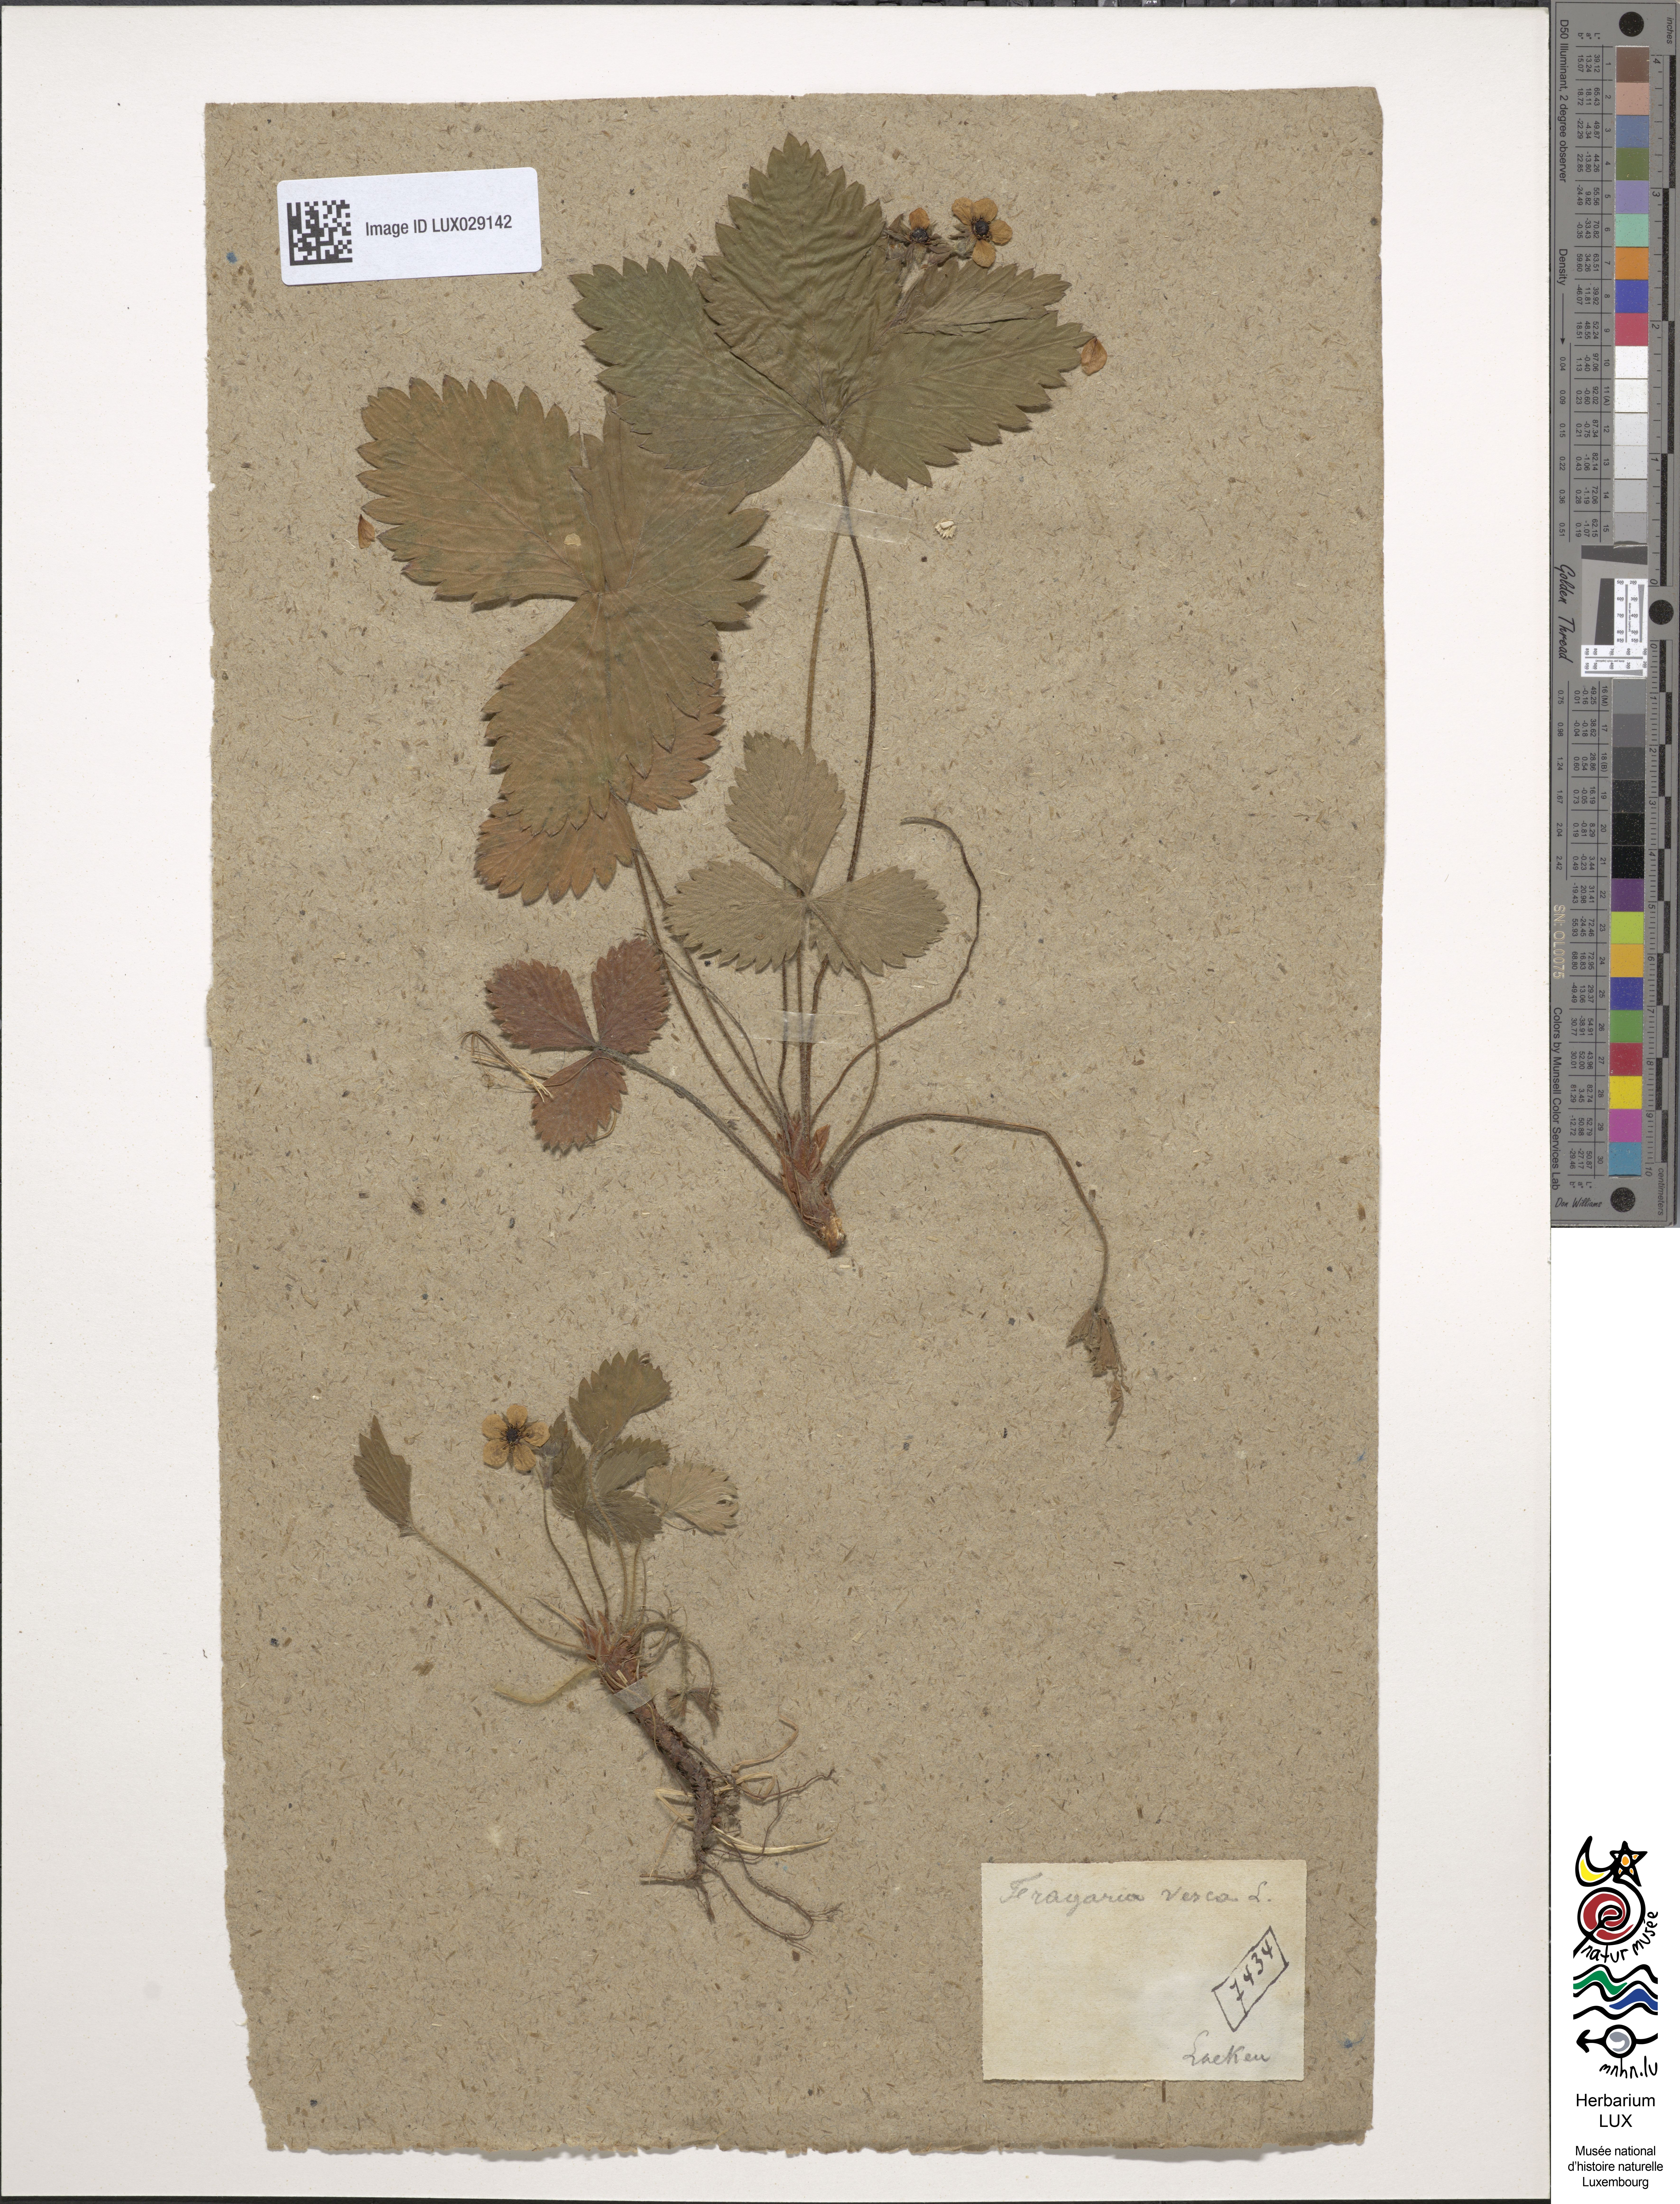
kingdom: Plantae
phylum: Tracheophyta
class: Magnoliopsida
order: Rosales
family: Rosaceae
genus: Fragaria
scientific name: Fragaria vesca
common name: Wild strawberry
